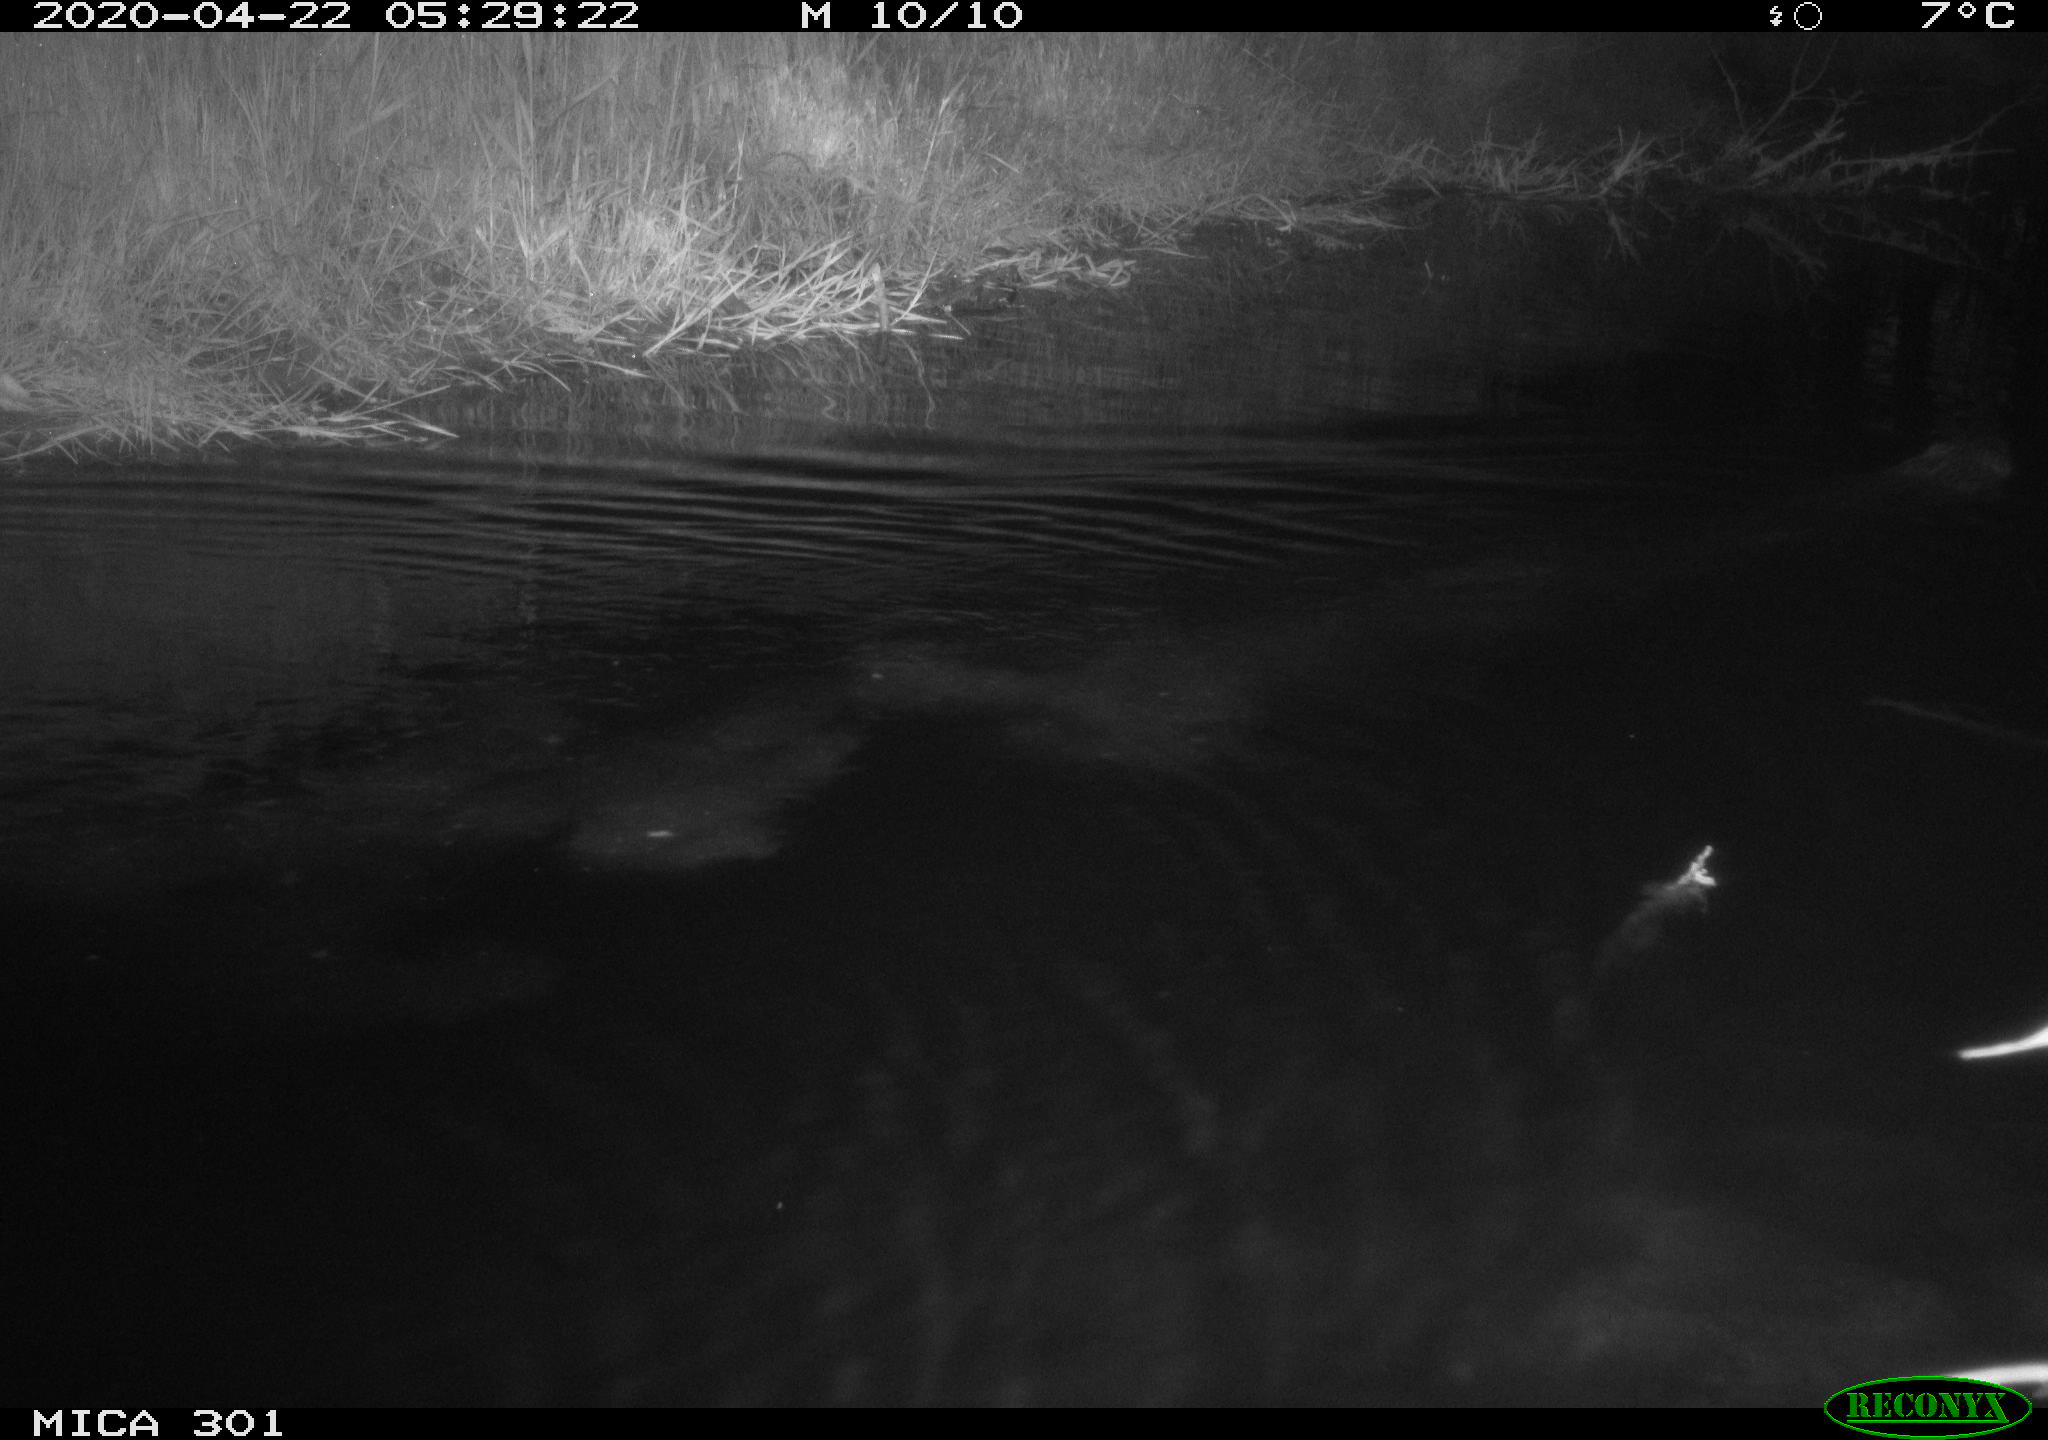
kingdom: Animalia
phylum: Chordata
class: Mammalia
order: Rodentia
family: Castoridae
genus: Castor
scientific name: Castor fiber
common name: Eurasian beaver
